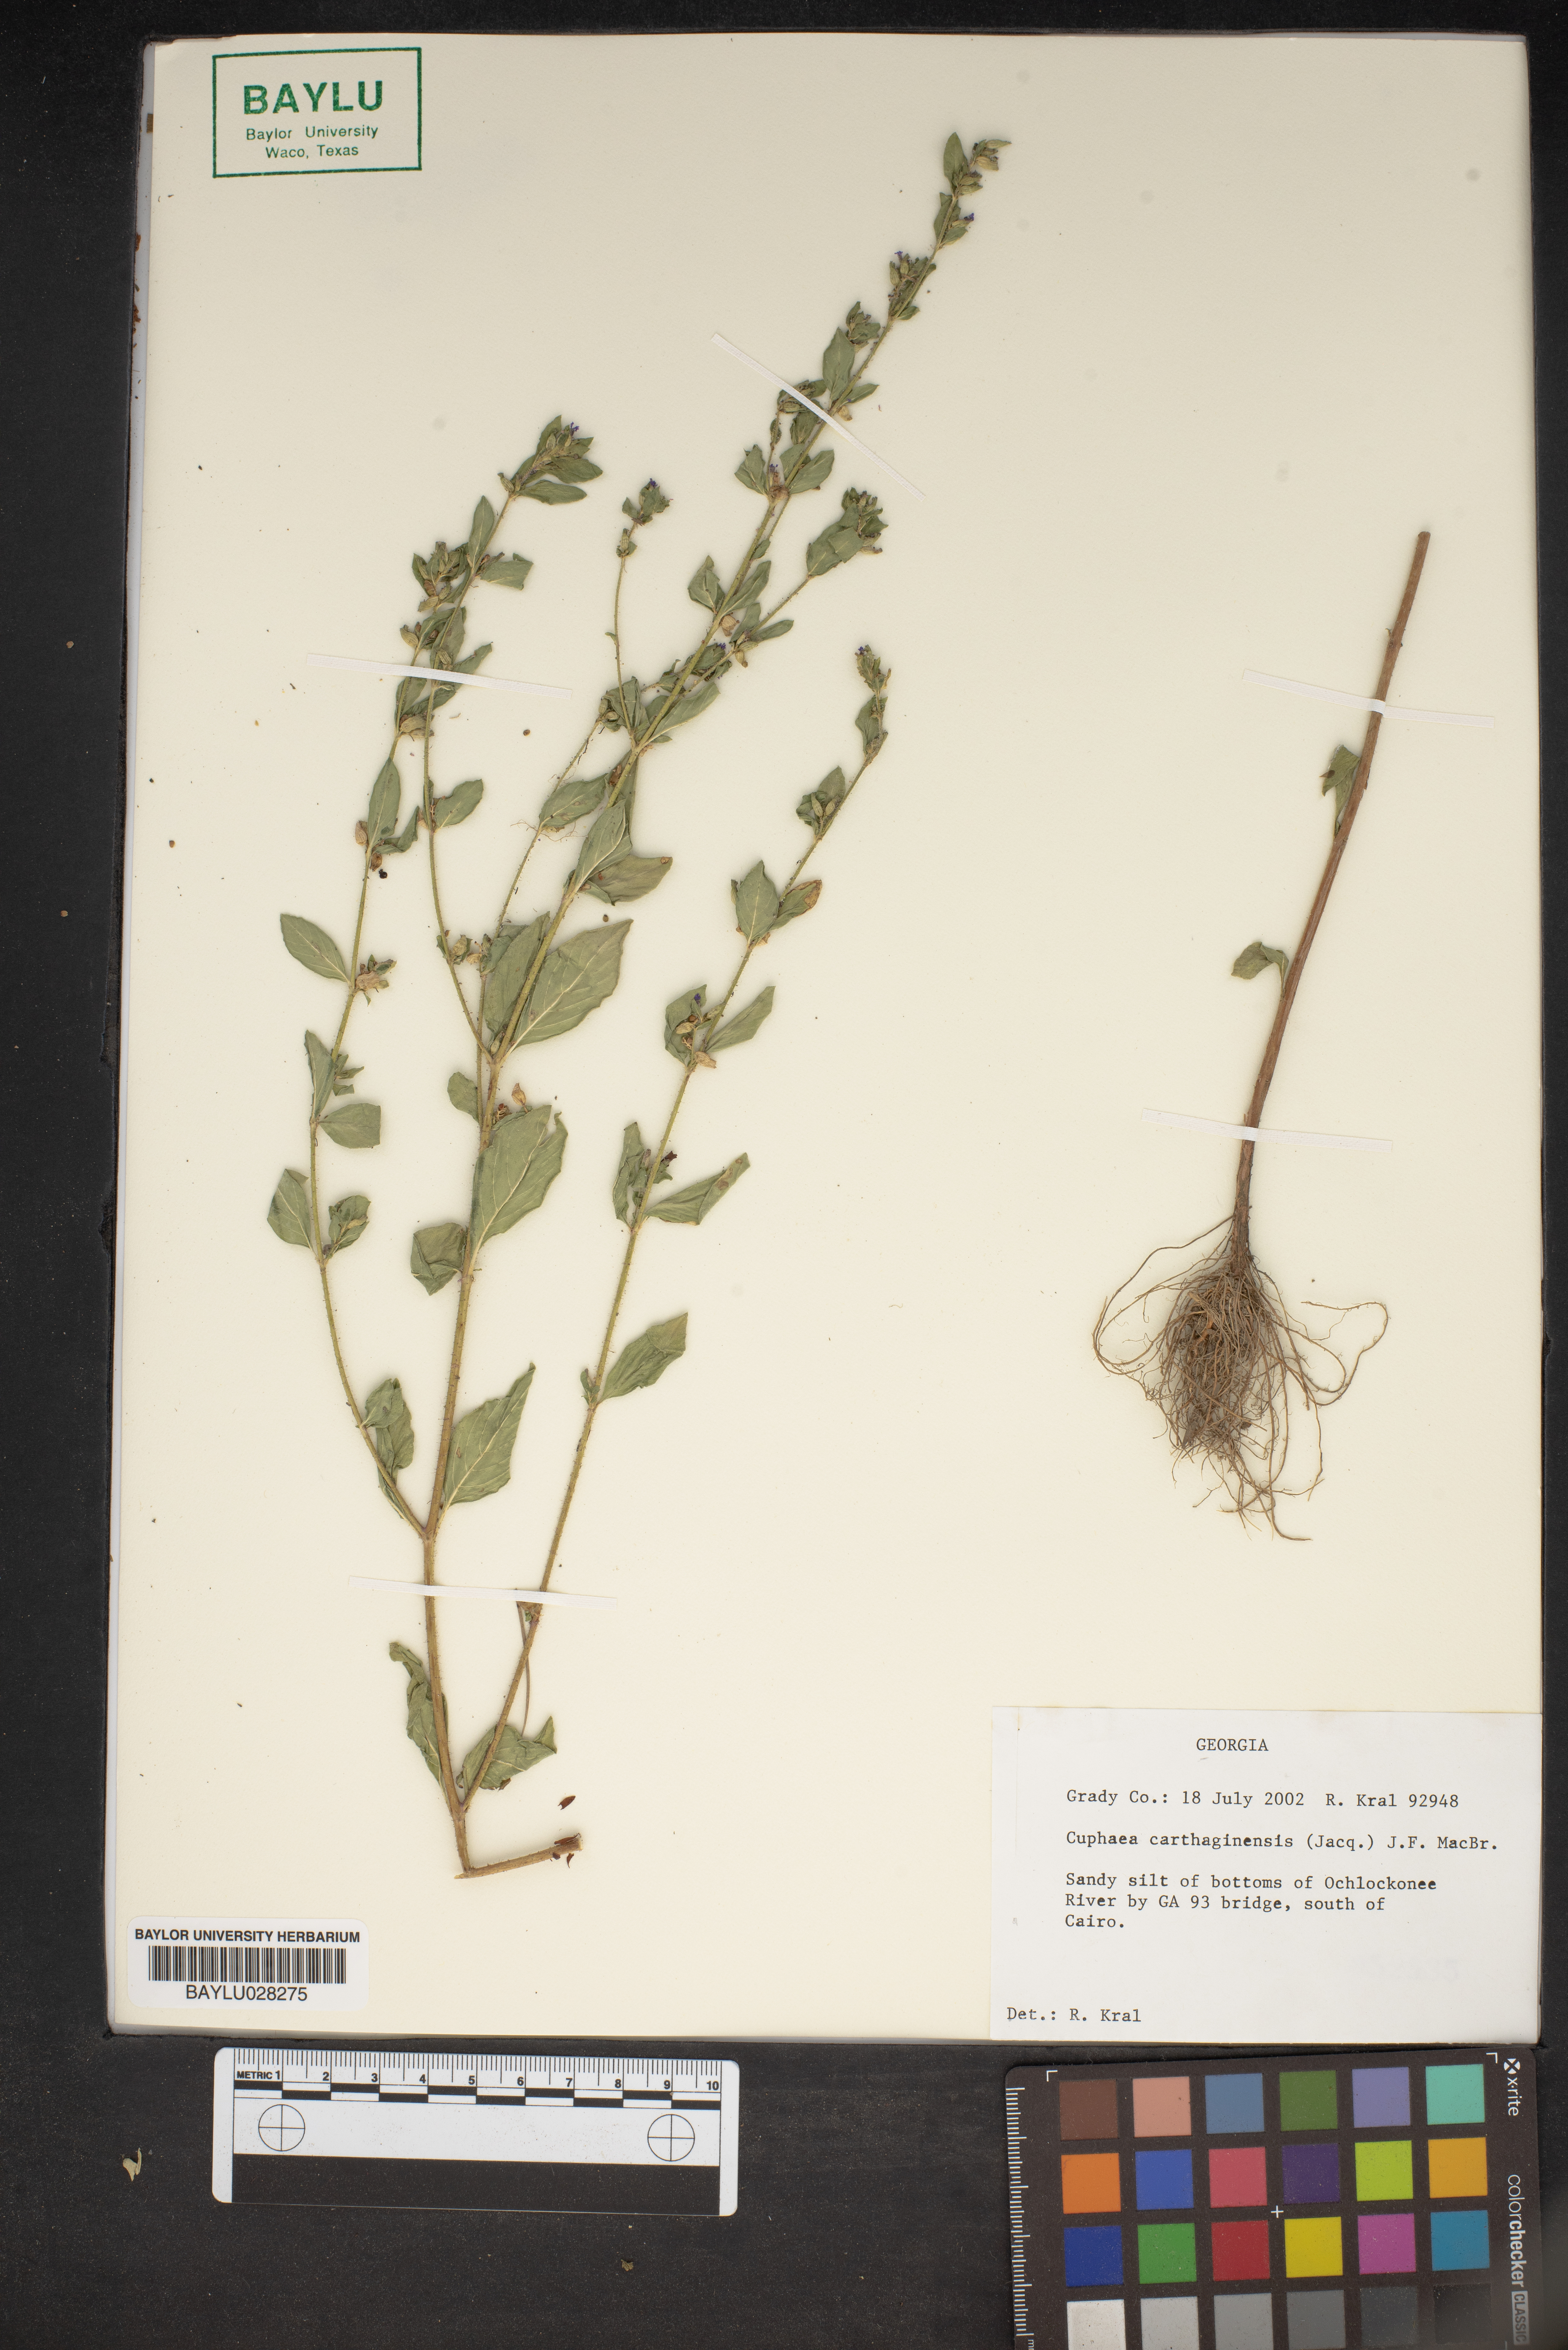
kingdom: Plantae
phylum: Tracheophyta
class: Magnoliopsida
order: Myrtales
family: Lythraceae
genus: Cuphea
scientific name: Cuphea carthagenensis
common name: Colombian waxweed
